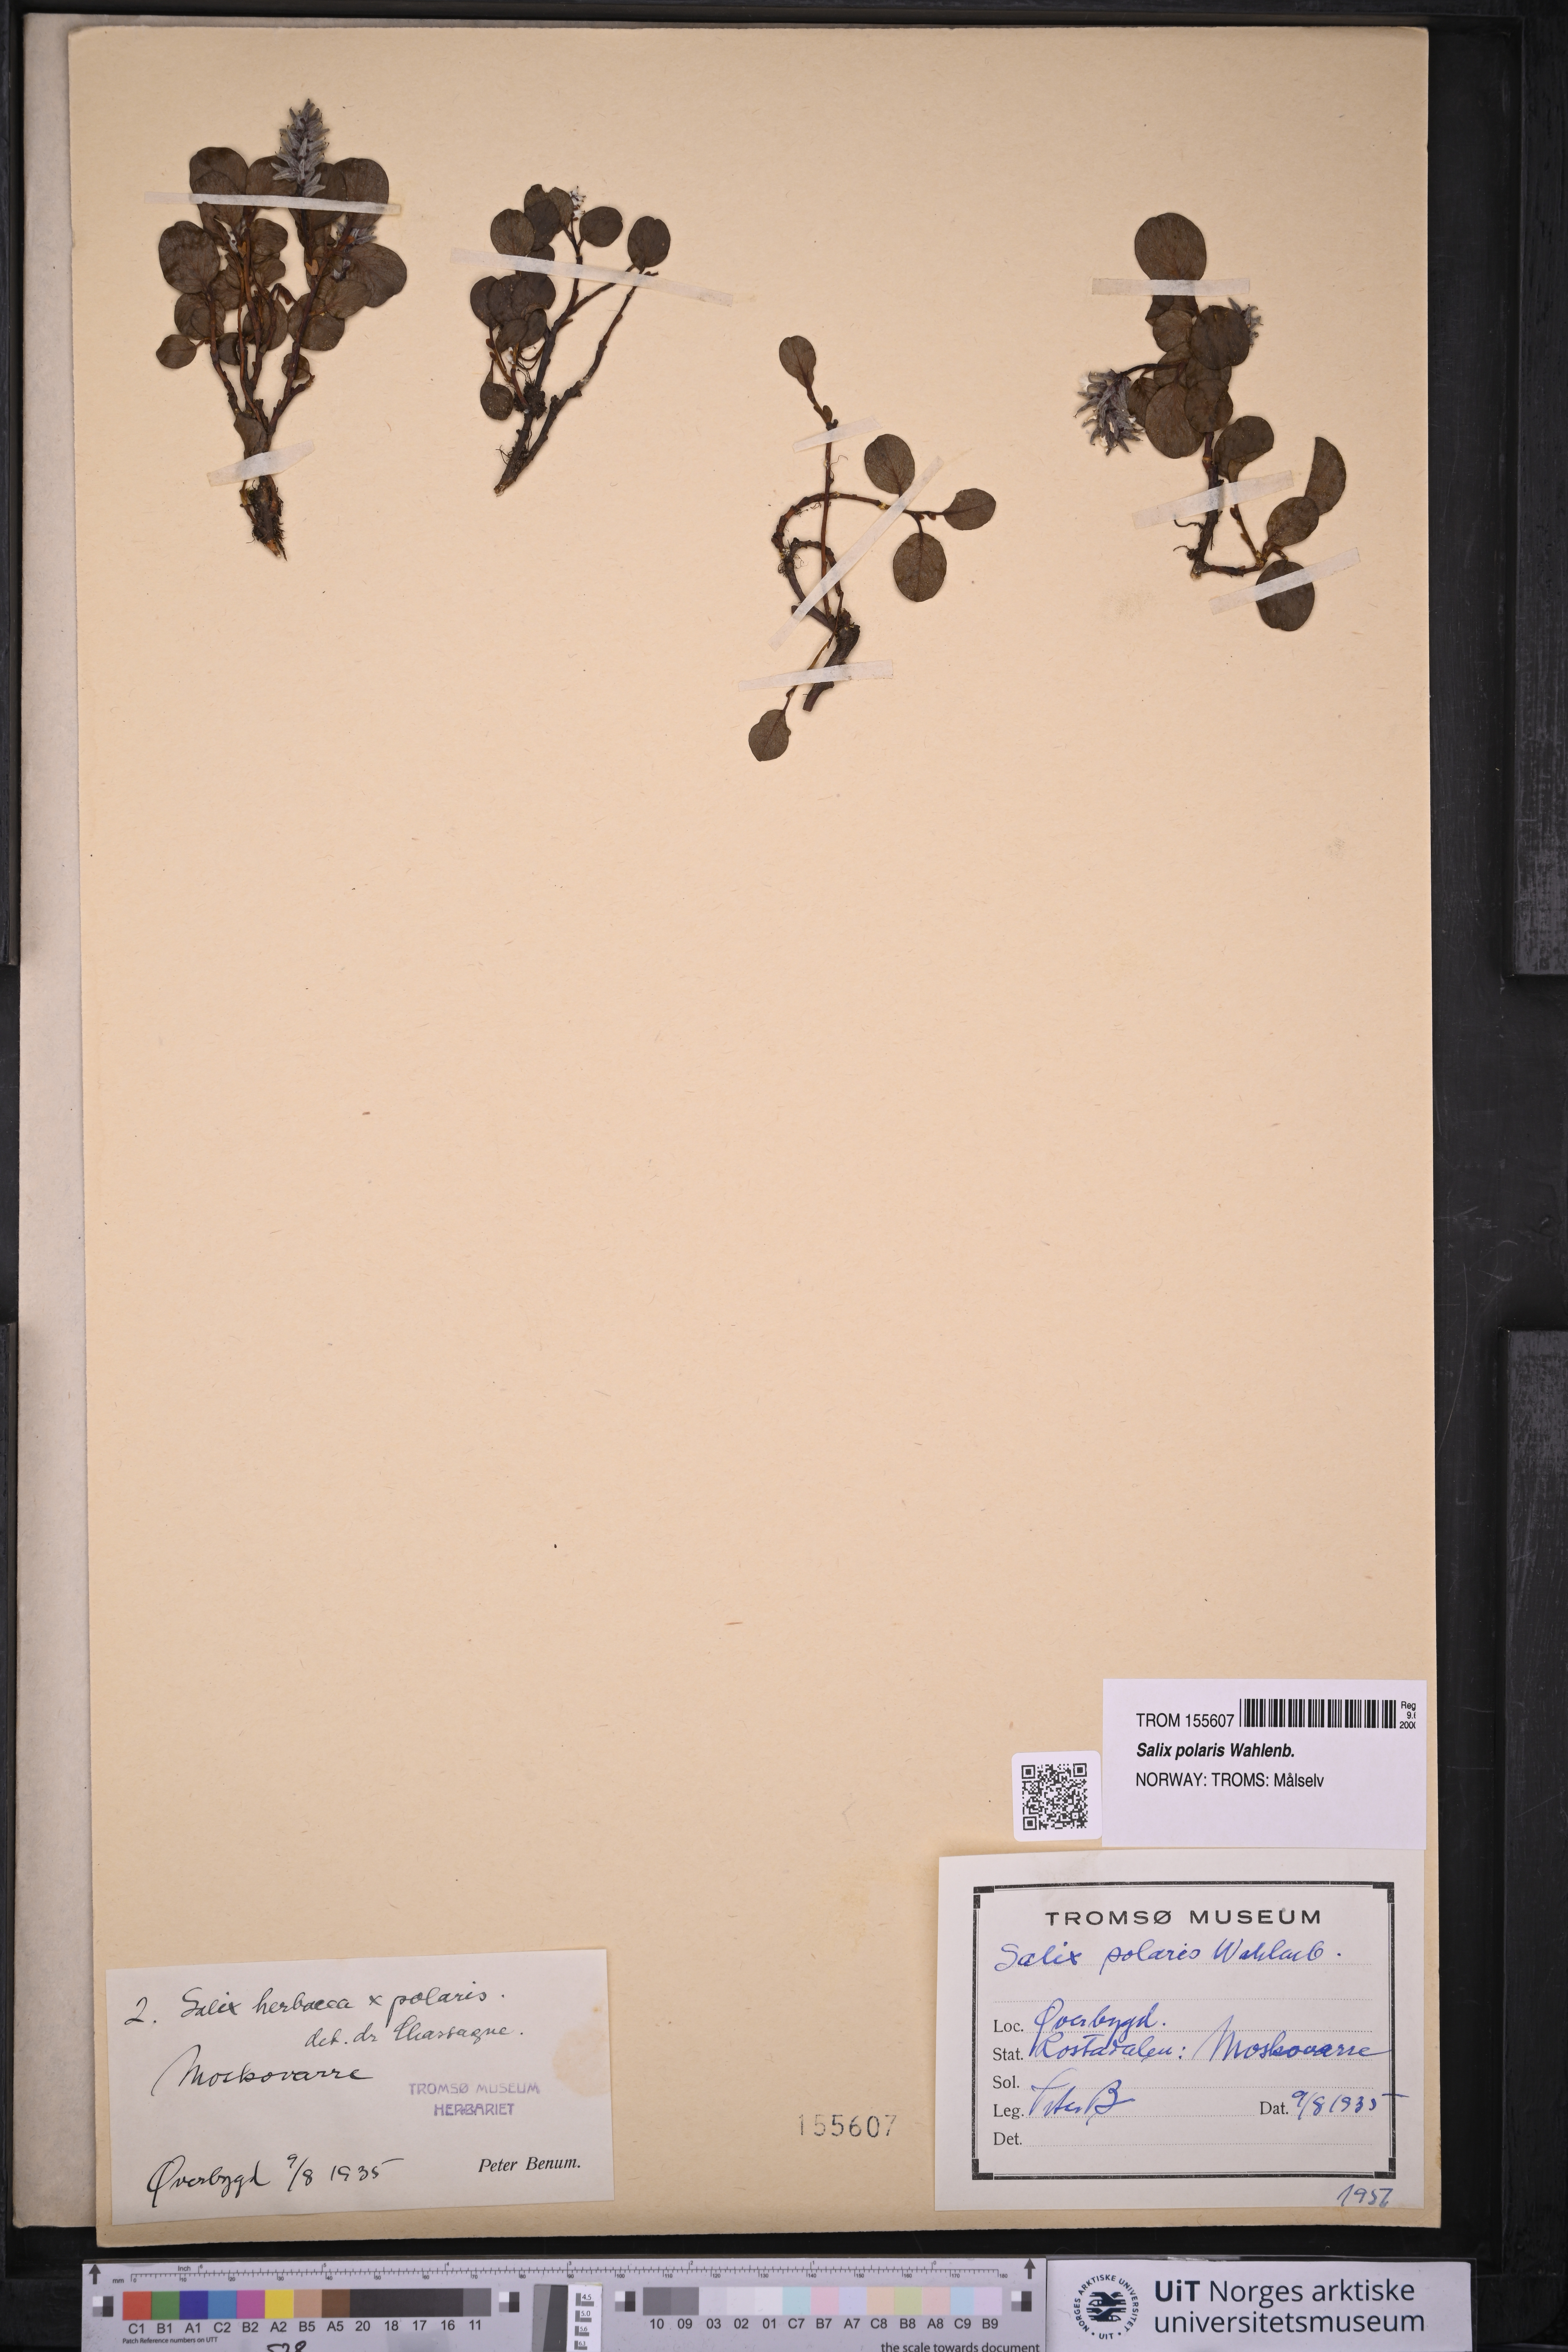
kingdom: Plantae
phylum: Tracheophyta
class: Magnoliopsida
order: Malpighiales
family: Salicaceae
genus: Salix
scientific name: Salix polaris
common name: Polar willow
